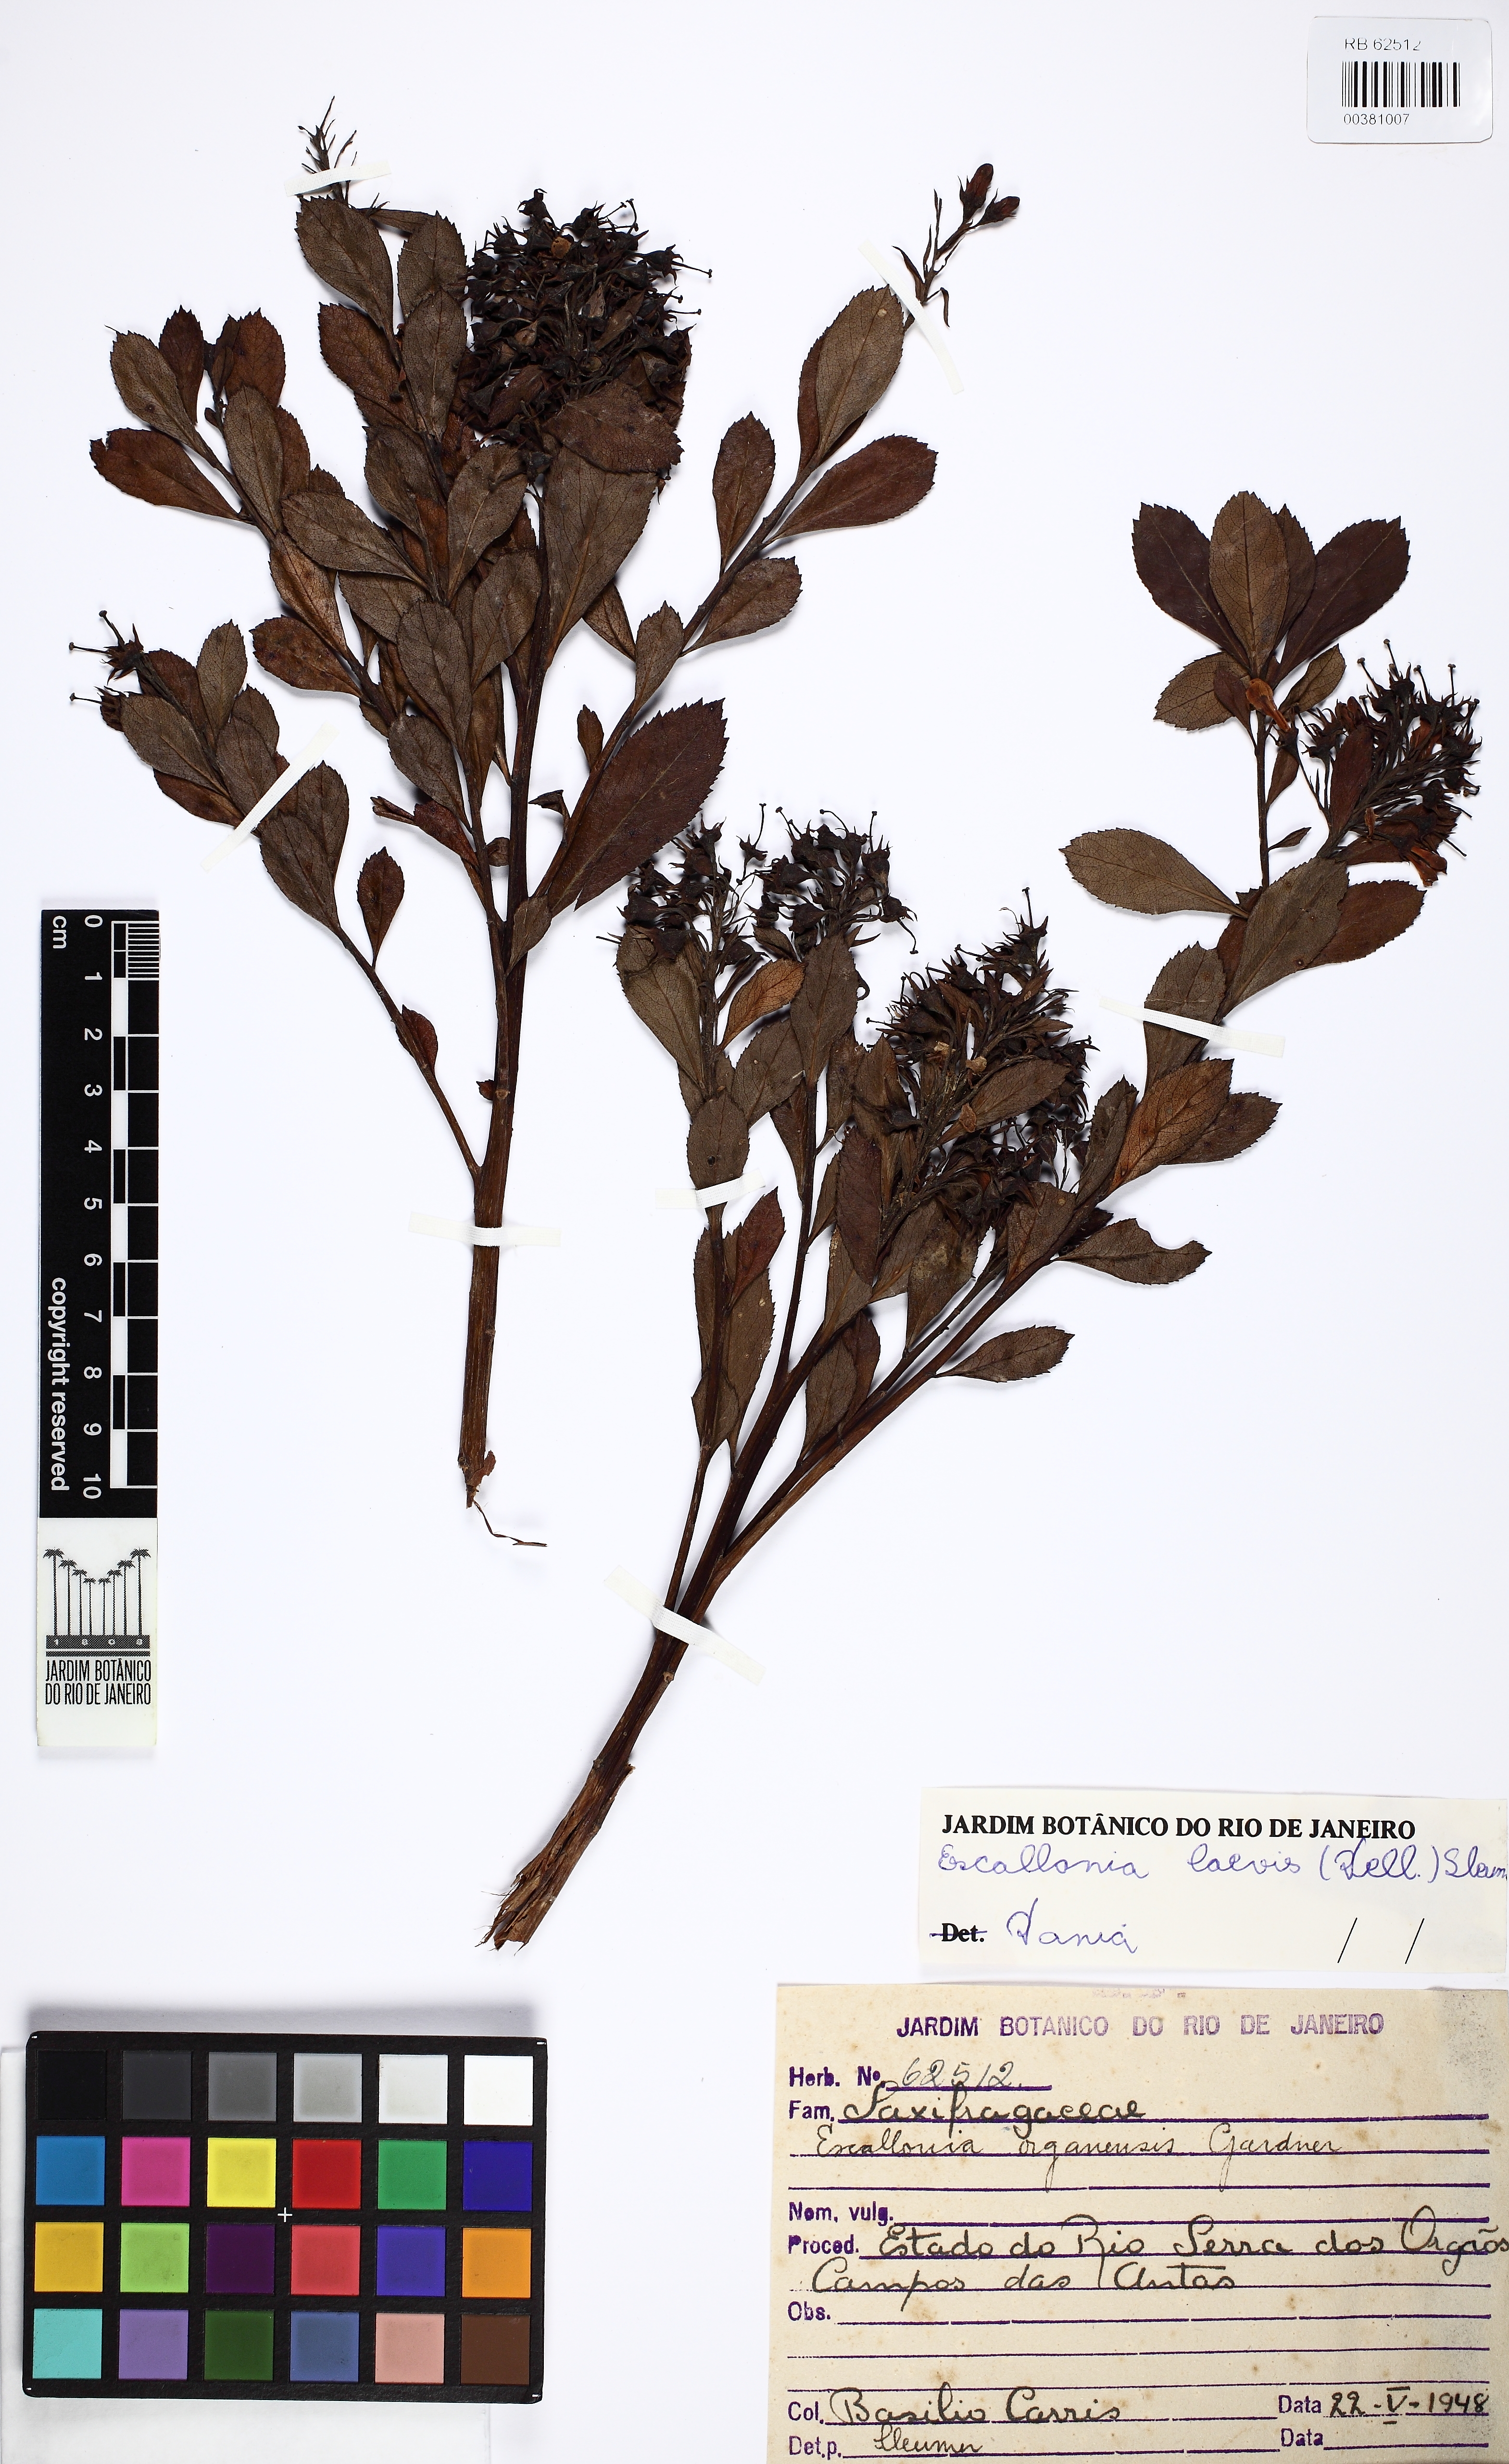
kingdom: Plantae
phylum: Tracheophyta
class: Magnoliopsida
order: Escalloniales
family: Escalloniaceae
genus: Escallonia
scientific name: Escallonia laevis
